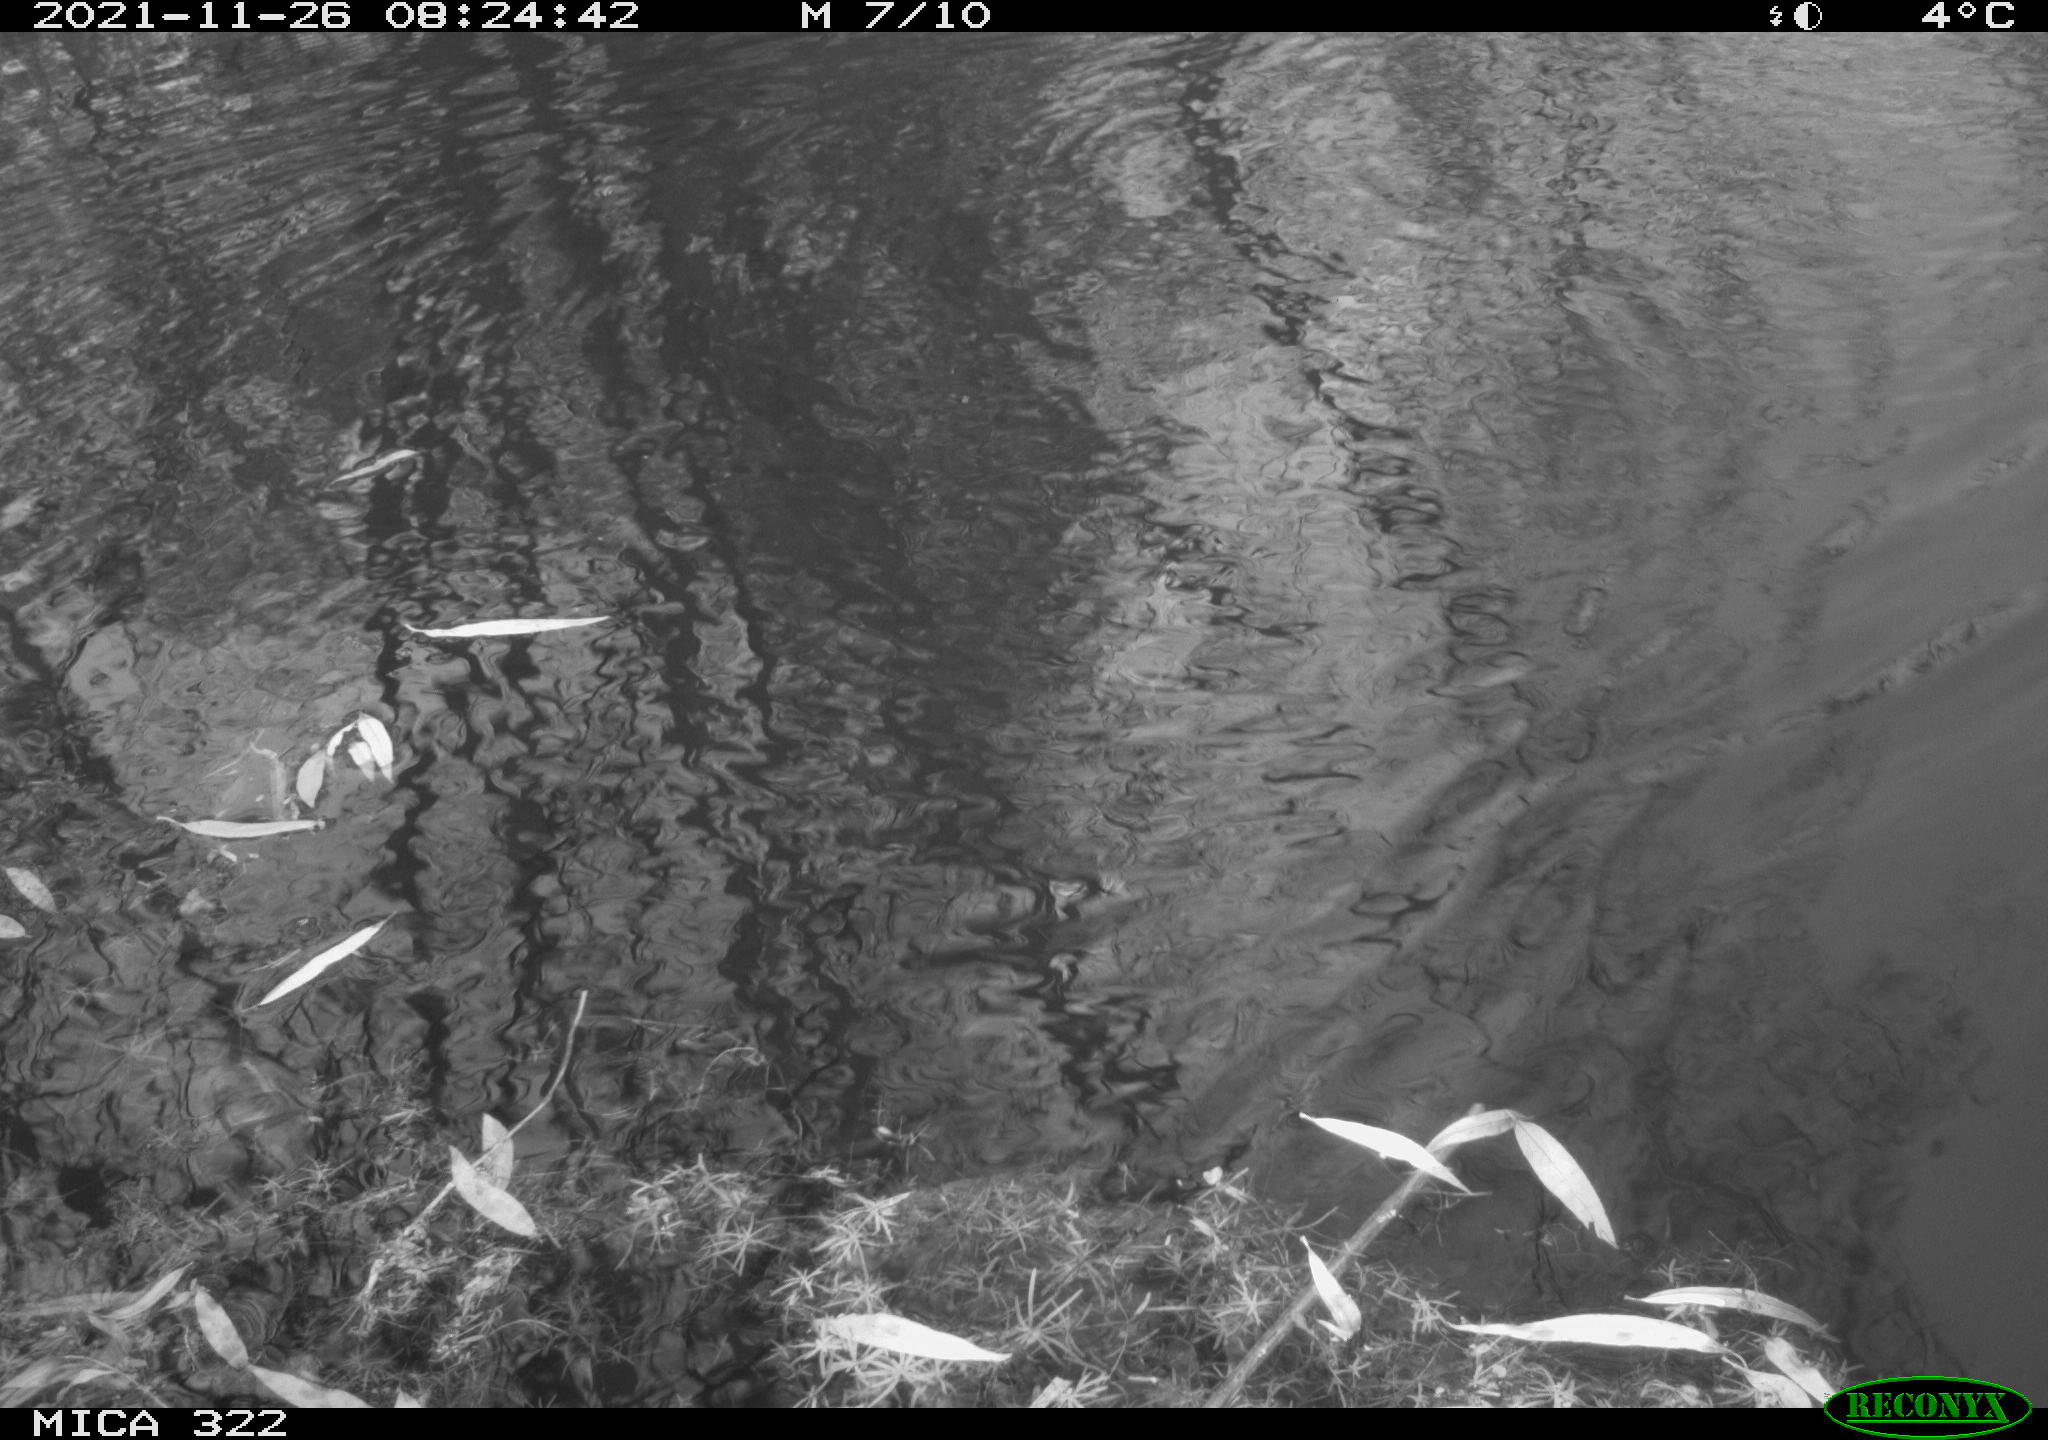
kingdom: Animalia
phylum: Chordata
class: Aves
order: Gruiformes
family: Rallidae
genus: Gallinula
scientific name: Gallinula chloropus
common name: Common moorhen
